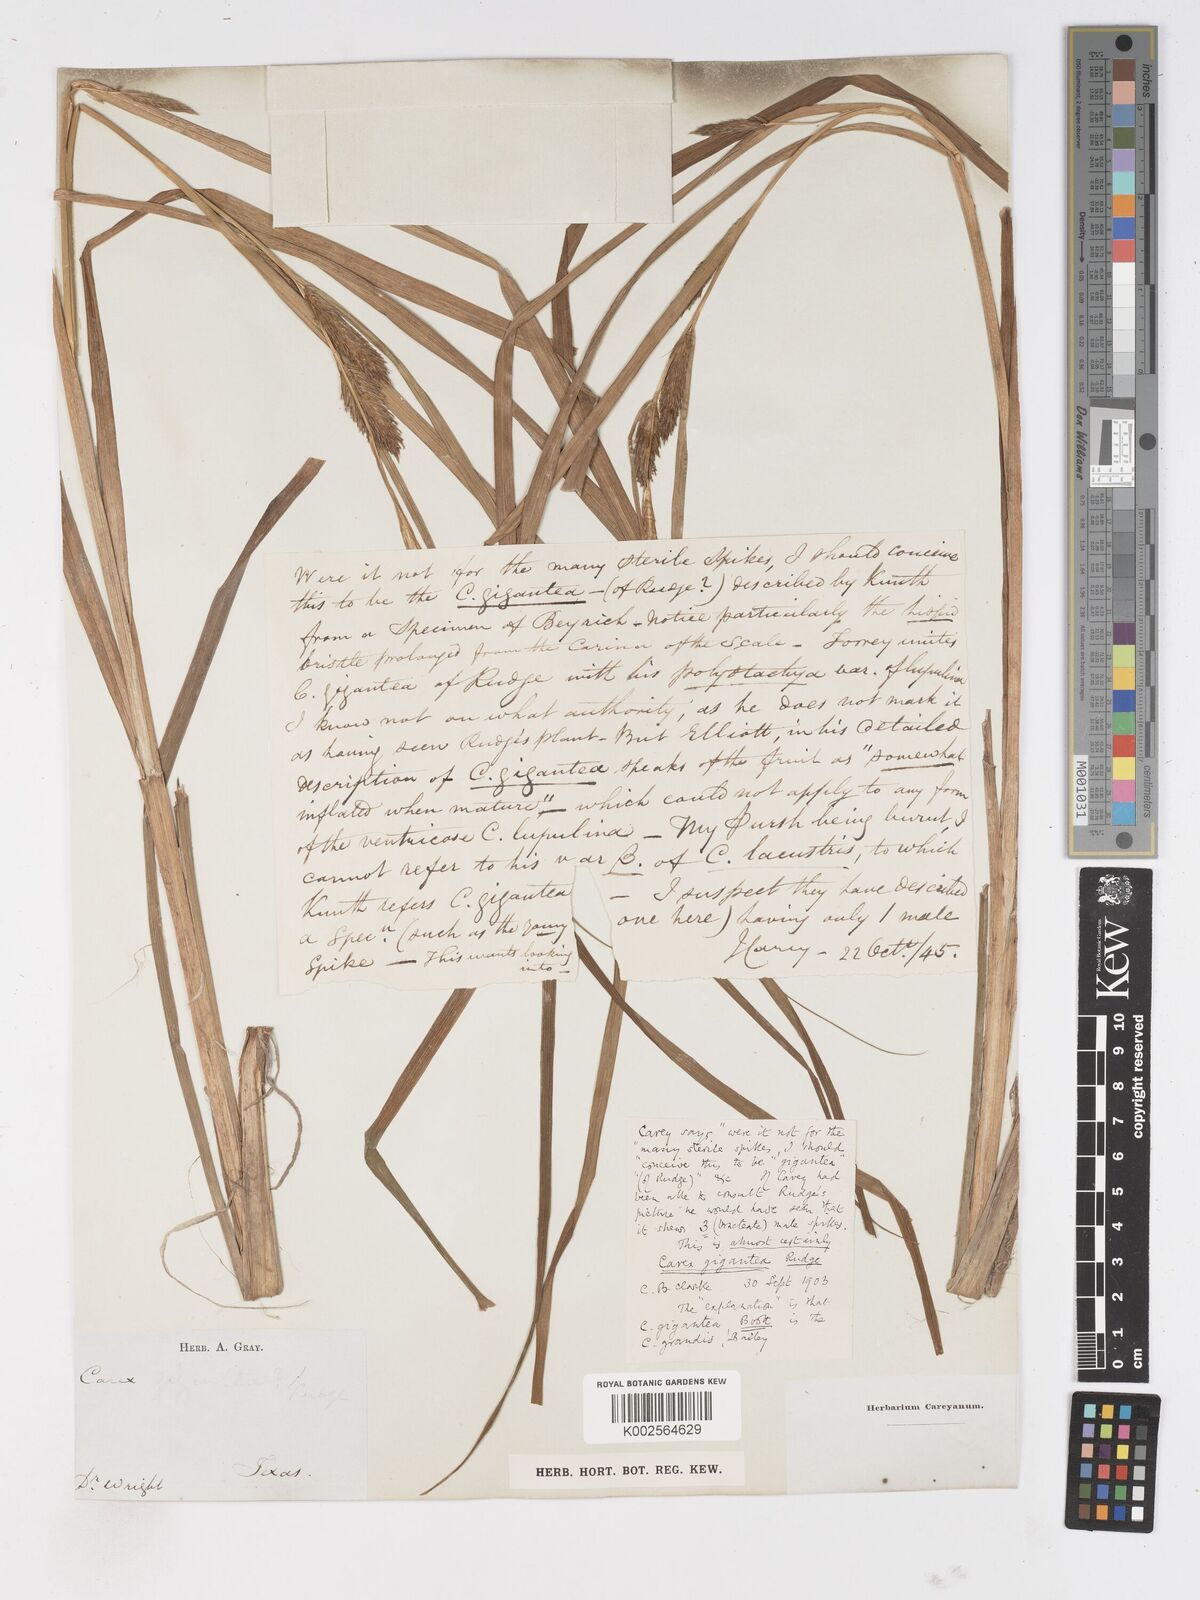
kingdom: Plantae
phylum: Tracheophyta
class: Liliopsida
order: Poales
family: Cyperaceae
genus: Carex
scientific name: Carex gigantea
